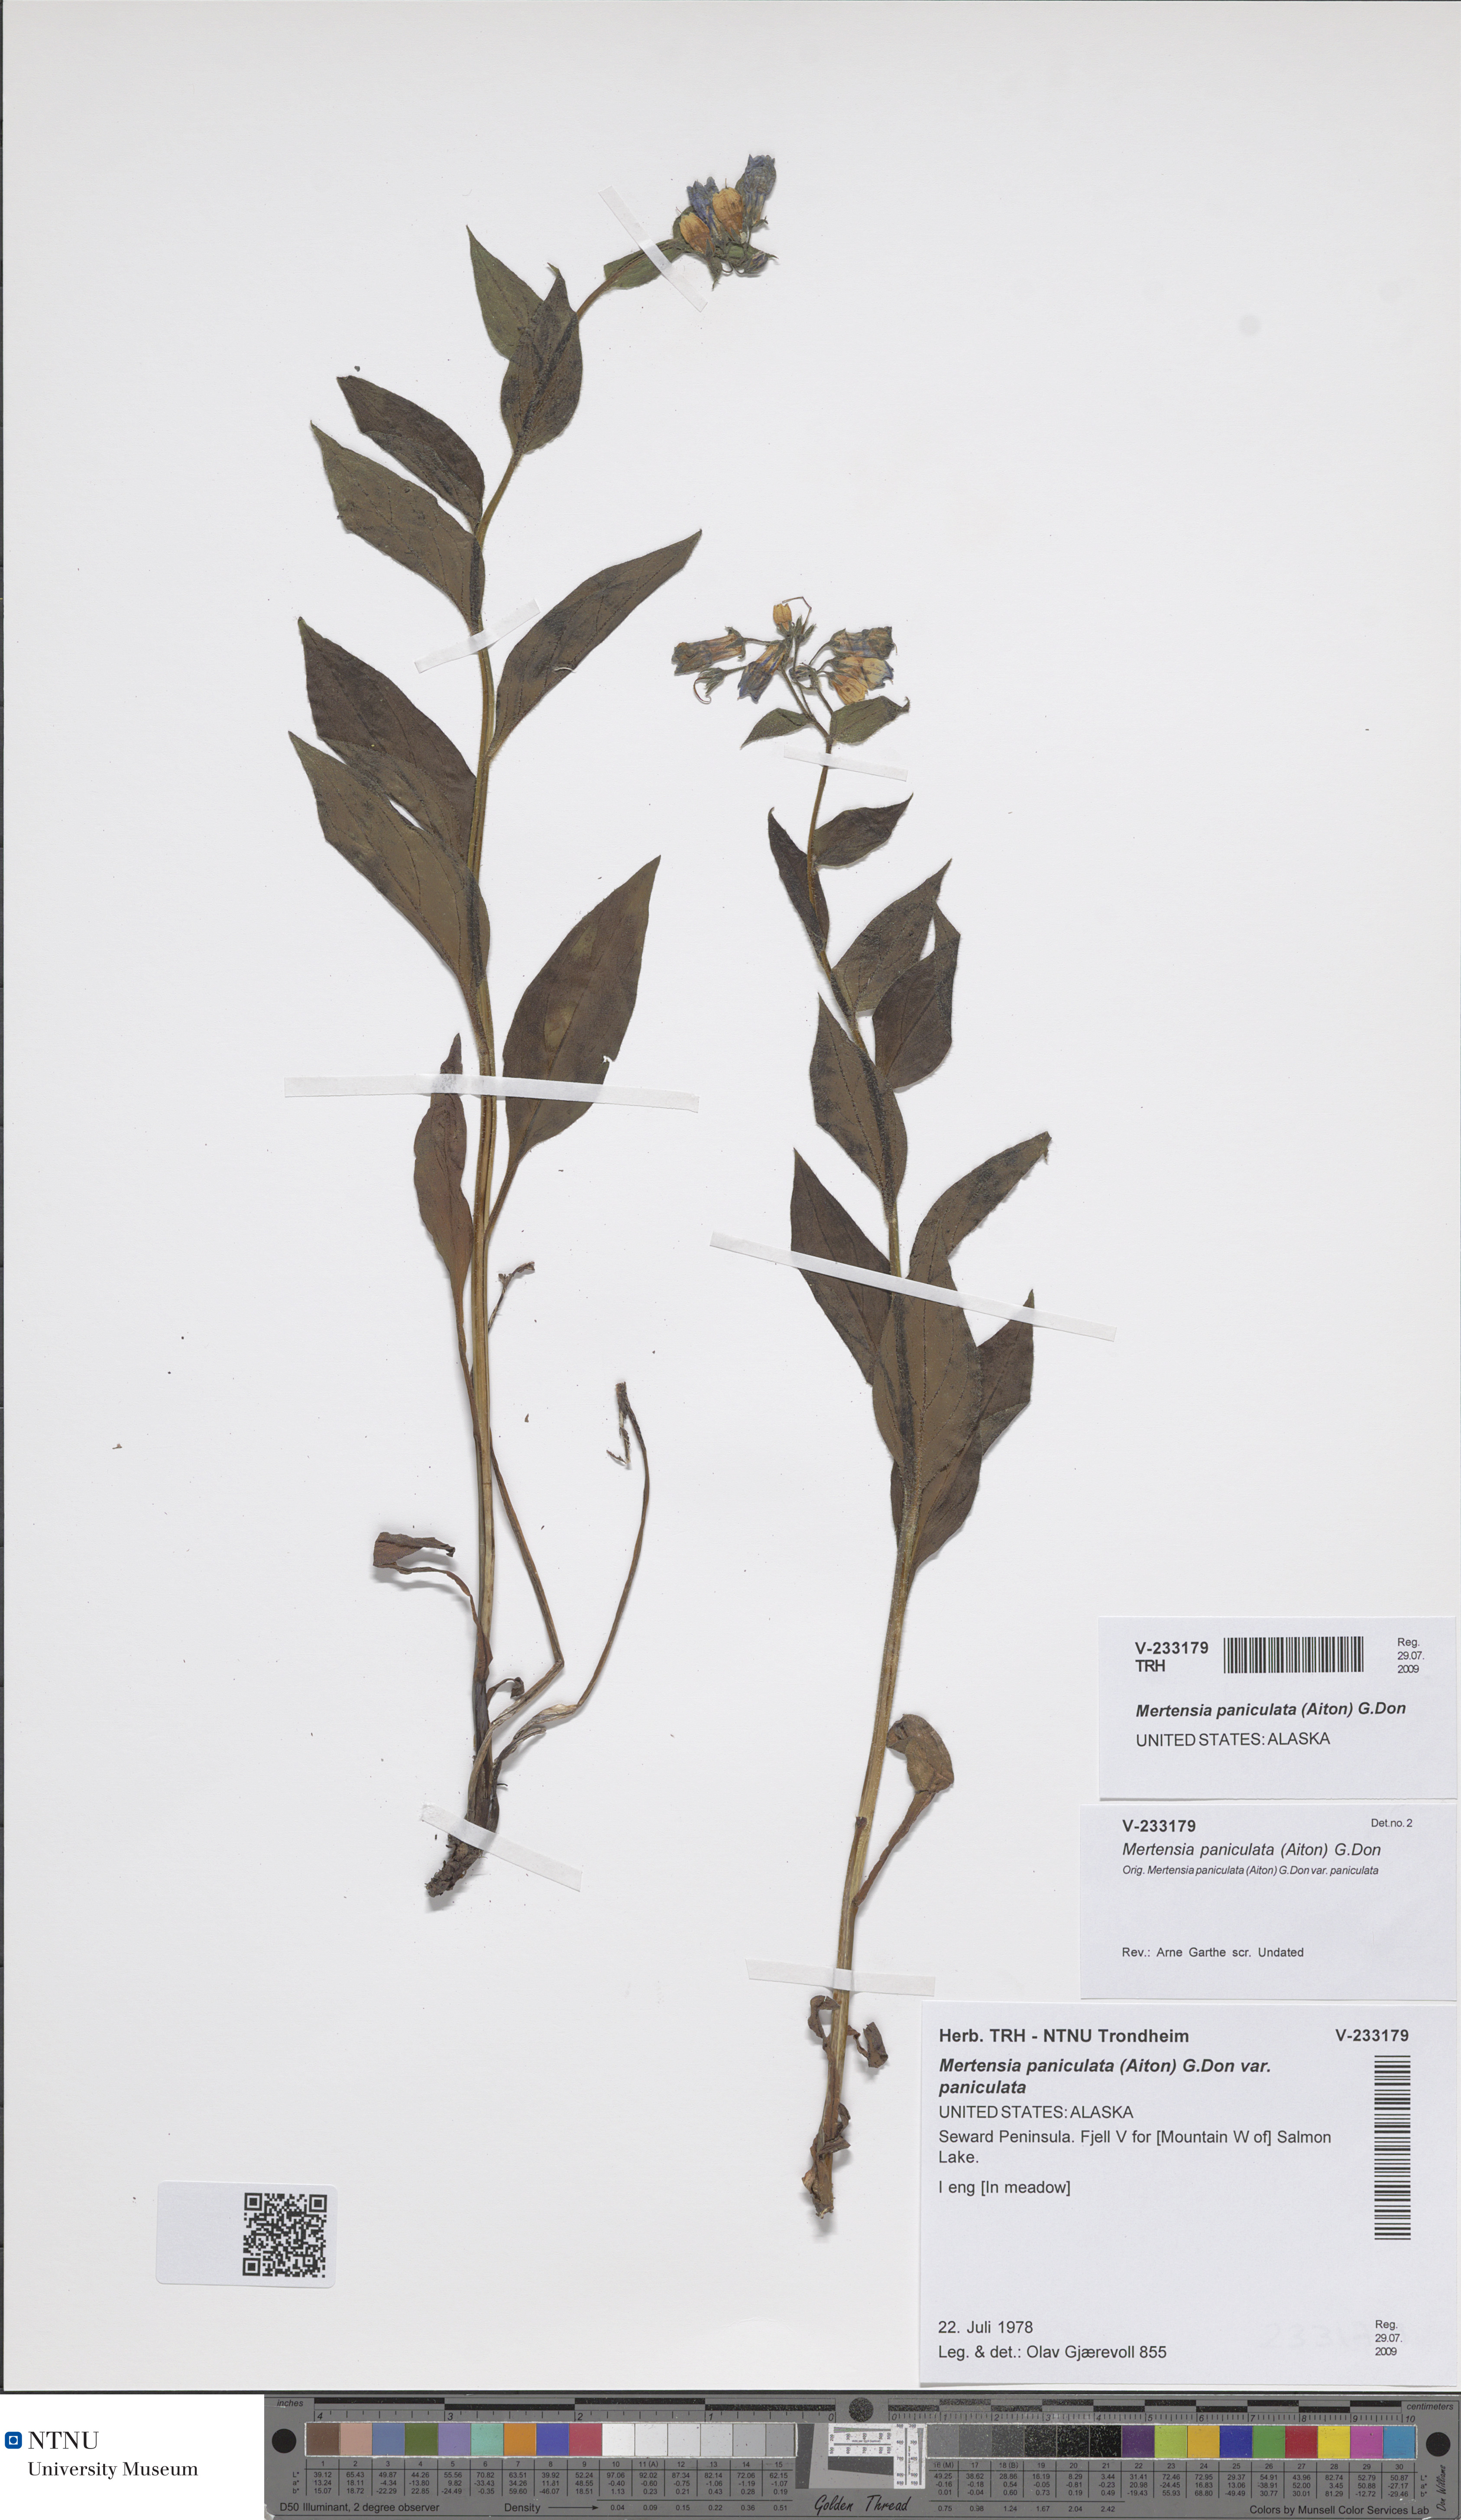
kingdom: Plantae
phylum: Tracheophyta
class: Magnoliopsida
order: Boraginales
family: Boraginaceae
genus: Mertensia
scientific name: Mertensia paniculata
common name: Panicled bluebells
